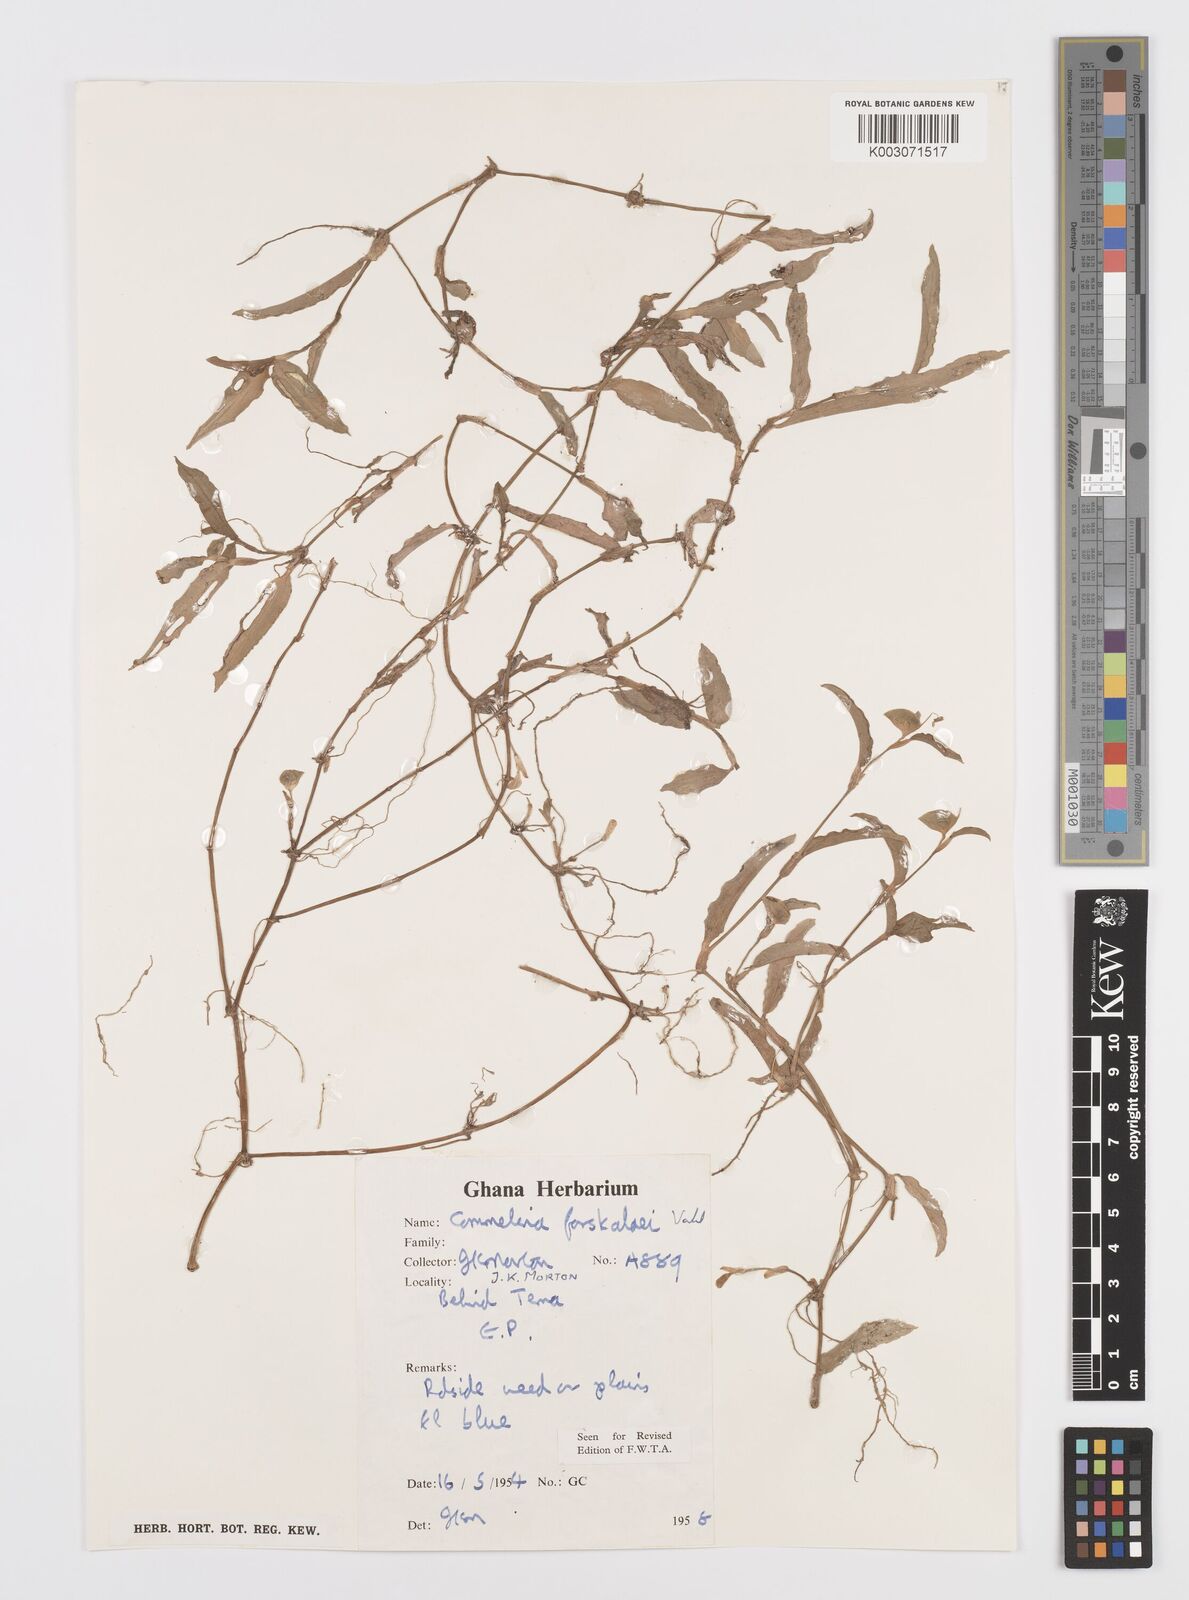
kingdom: Plantae
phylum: Tracheophyta
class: Liliopsida
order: Commelinales
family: Commelinaceae
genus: Commelina
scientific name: Commelina forskaolii
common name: Rat's ear
